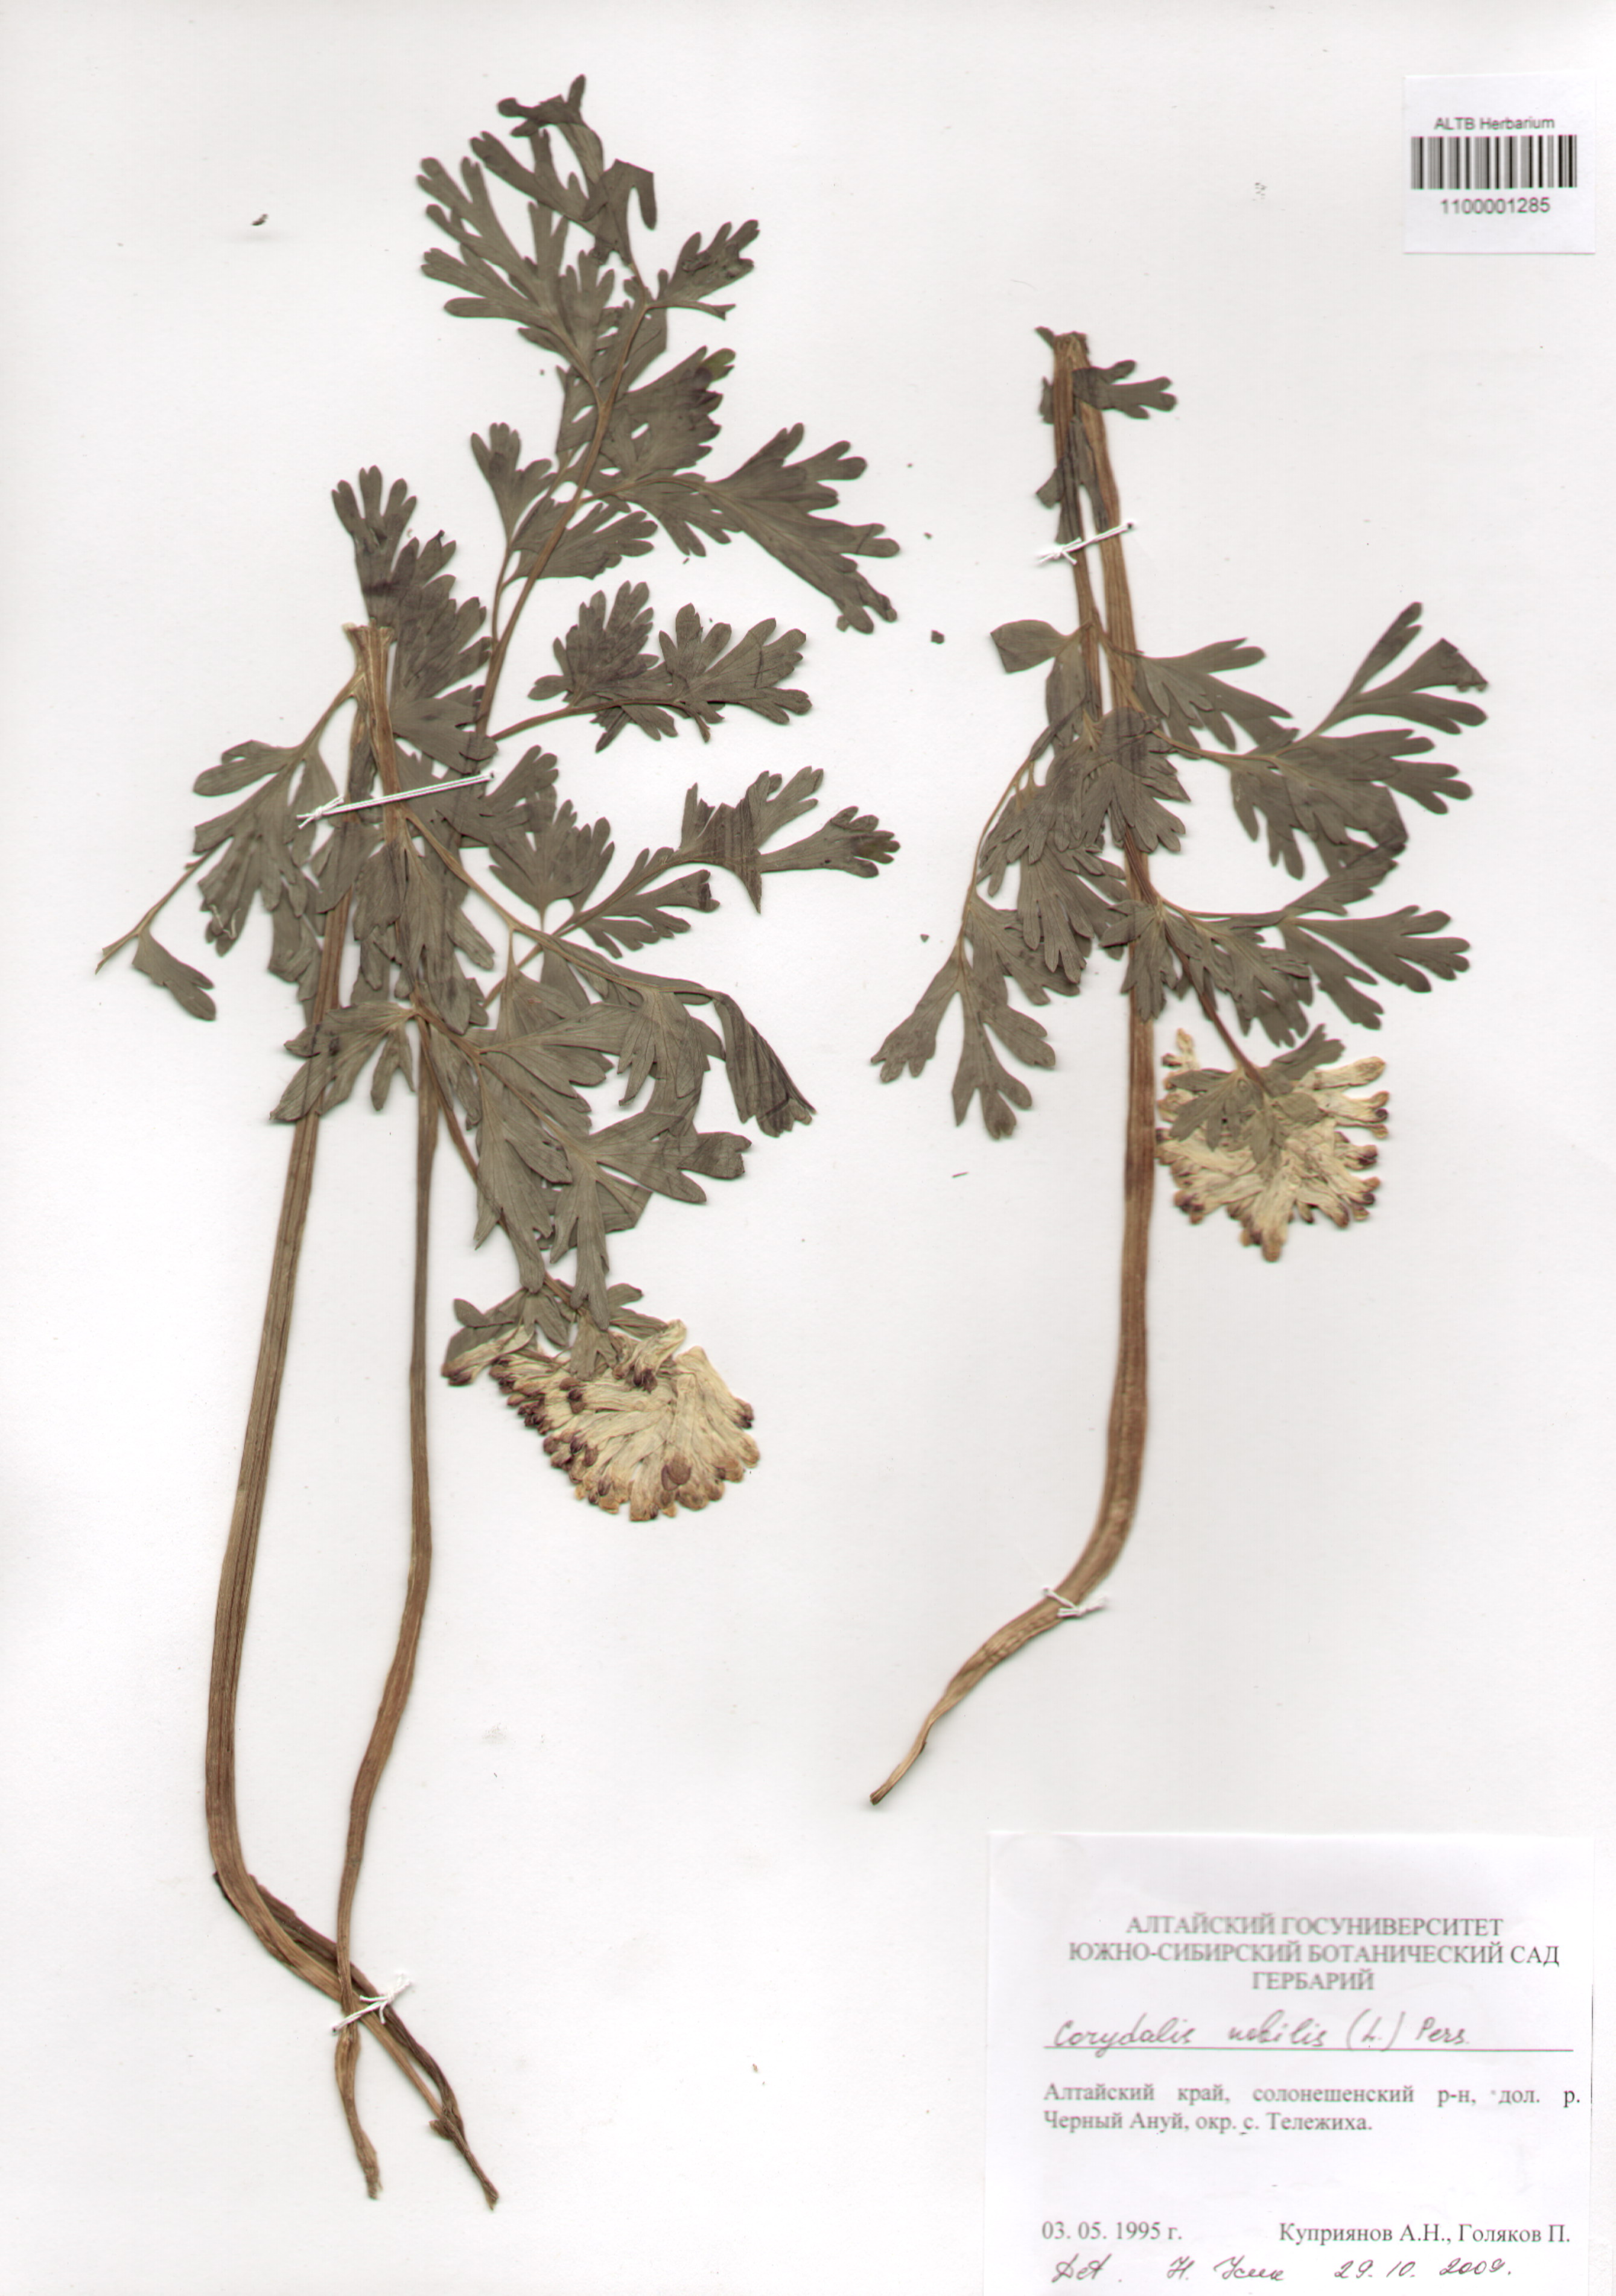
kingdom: Plantae
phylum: Tracheophyta
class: Magnoliopsida
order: Ranunculales
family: Papaveraceae
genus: Corydalis
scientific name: Corydalis nobilis
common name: Siberian corydalis
